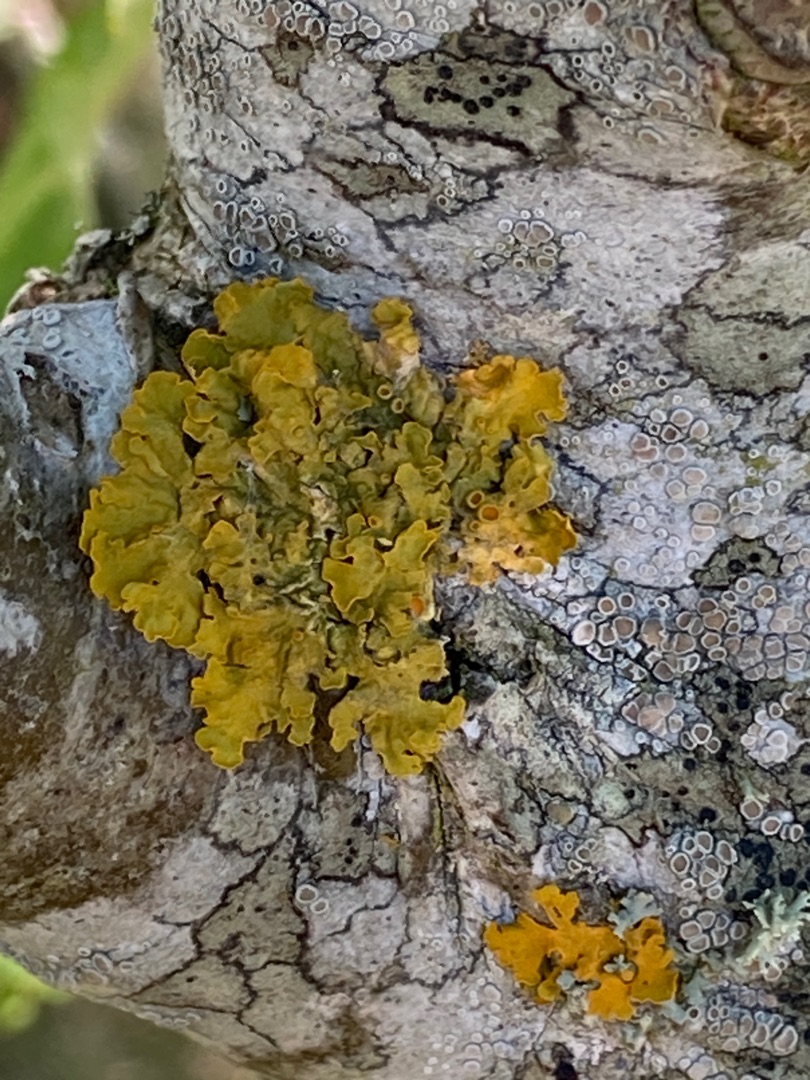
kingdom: Fungi
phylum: Ascomycota
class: Lecanoromycetes
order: Teloschistales
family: Teloschistaceae
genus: Xanthoria
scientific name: Xanthoria parietina
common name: Almindelig væggelav
